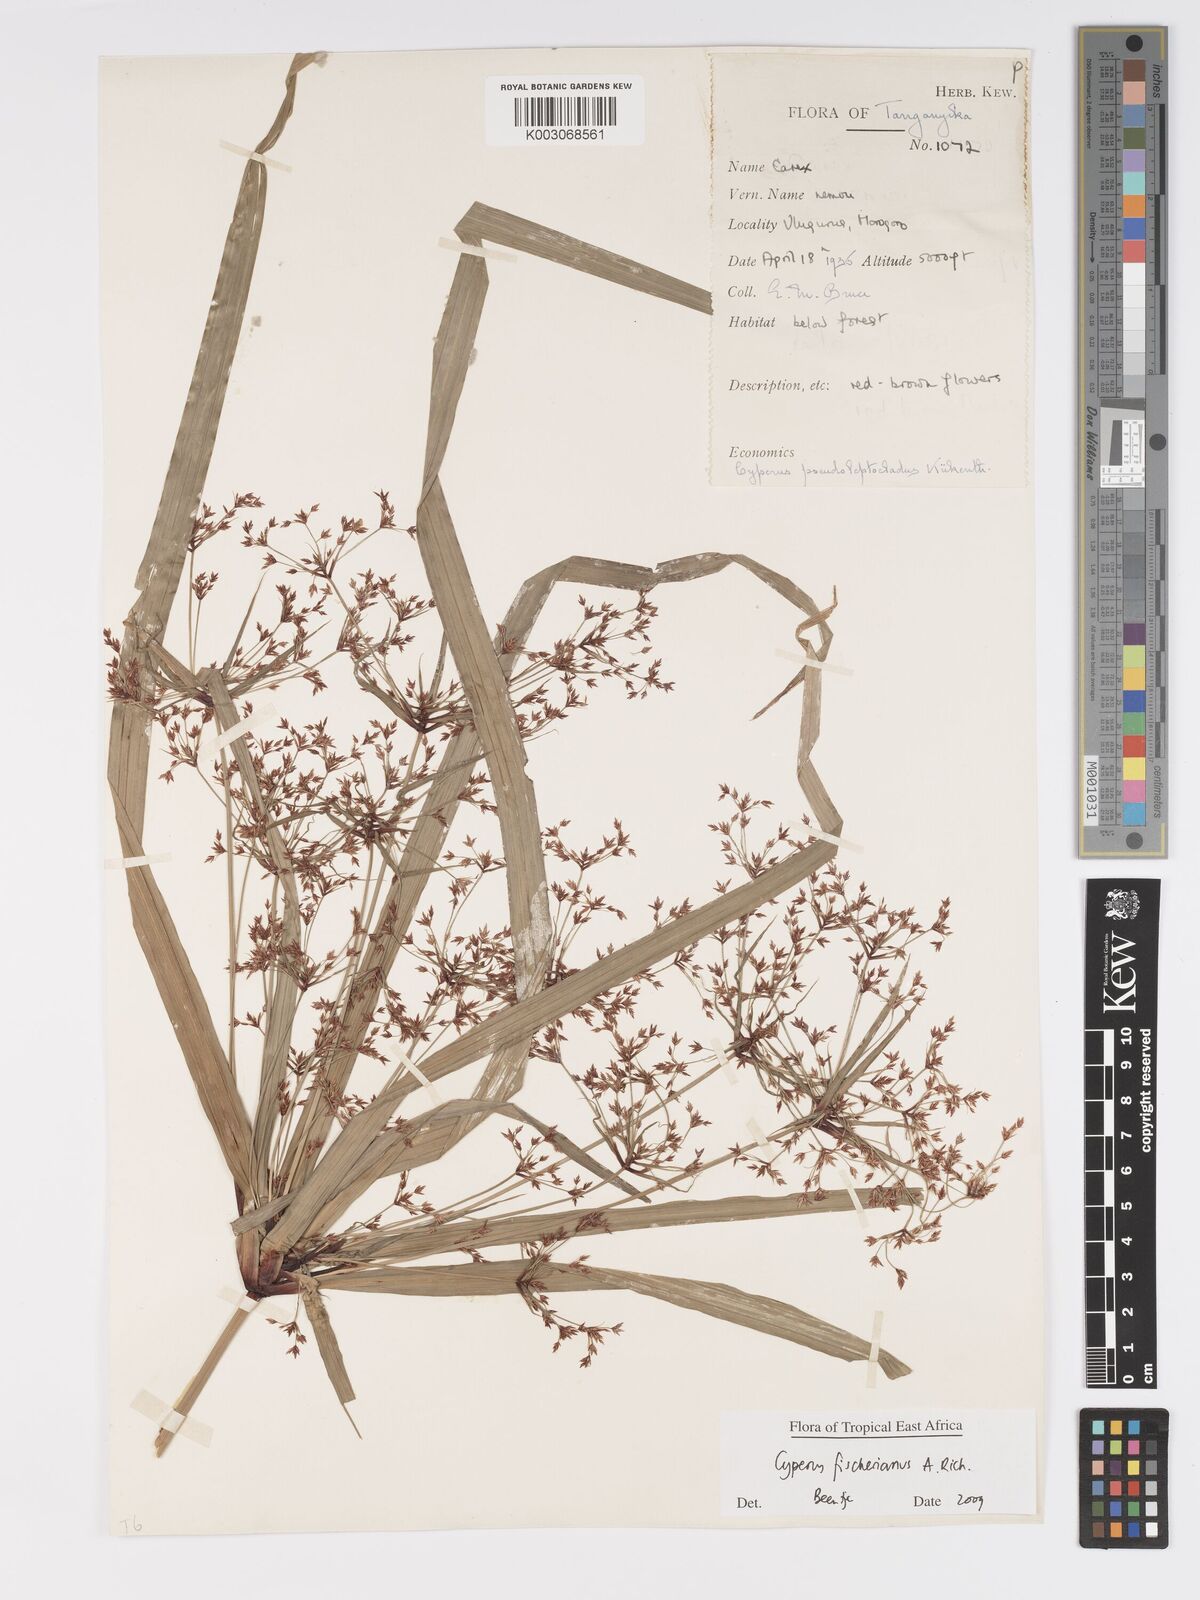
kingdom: Plantae
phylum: Tracheophyta
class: Liliopsida
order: Poales
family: Cyperaceae
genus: Cyperus
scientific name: Cyperus fischerianus
